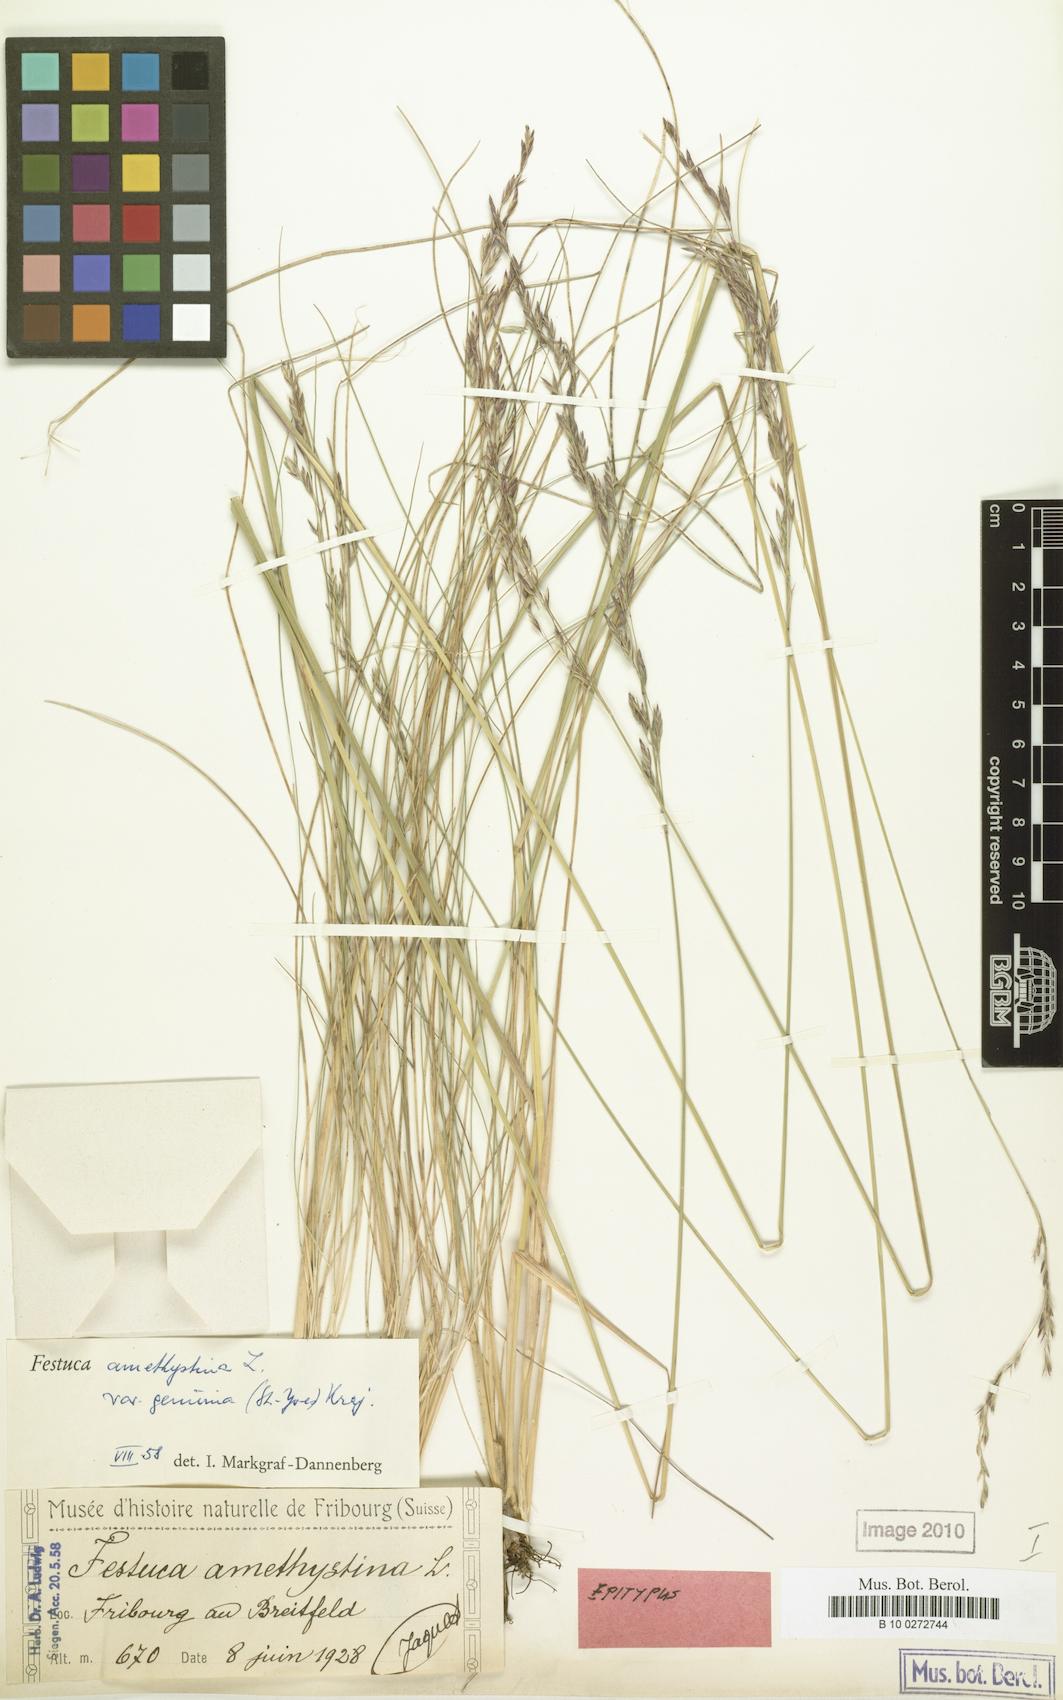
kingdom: Plantae
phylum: Tracheophyta
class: Liliopsida
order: Poales
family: Poaceae
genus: Festuca
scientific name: Festuca amethystina
